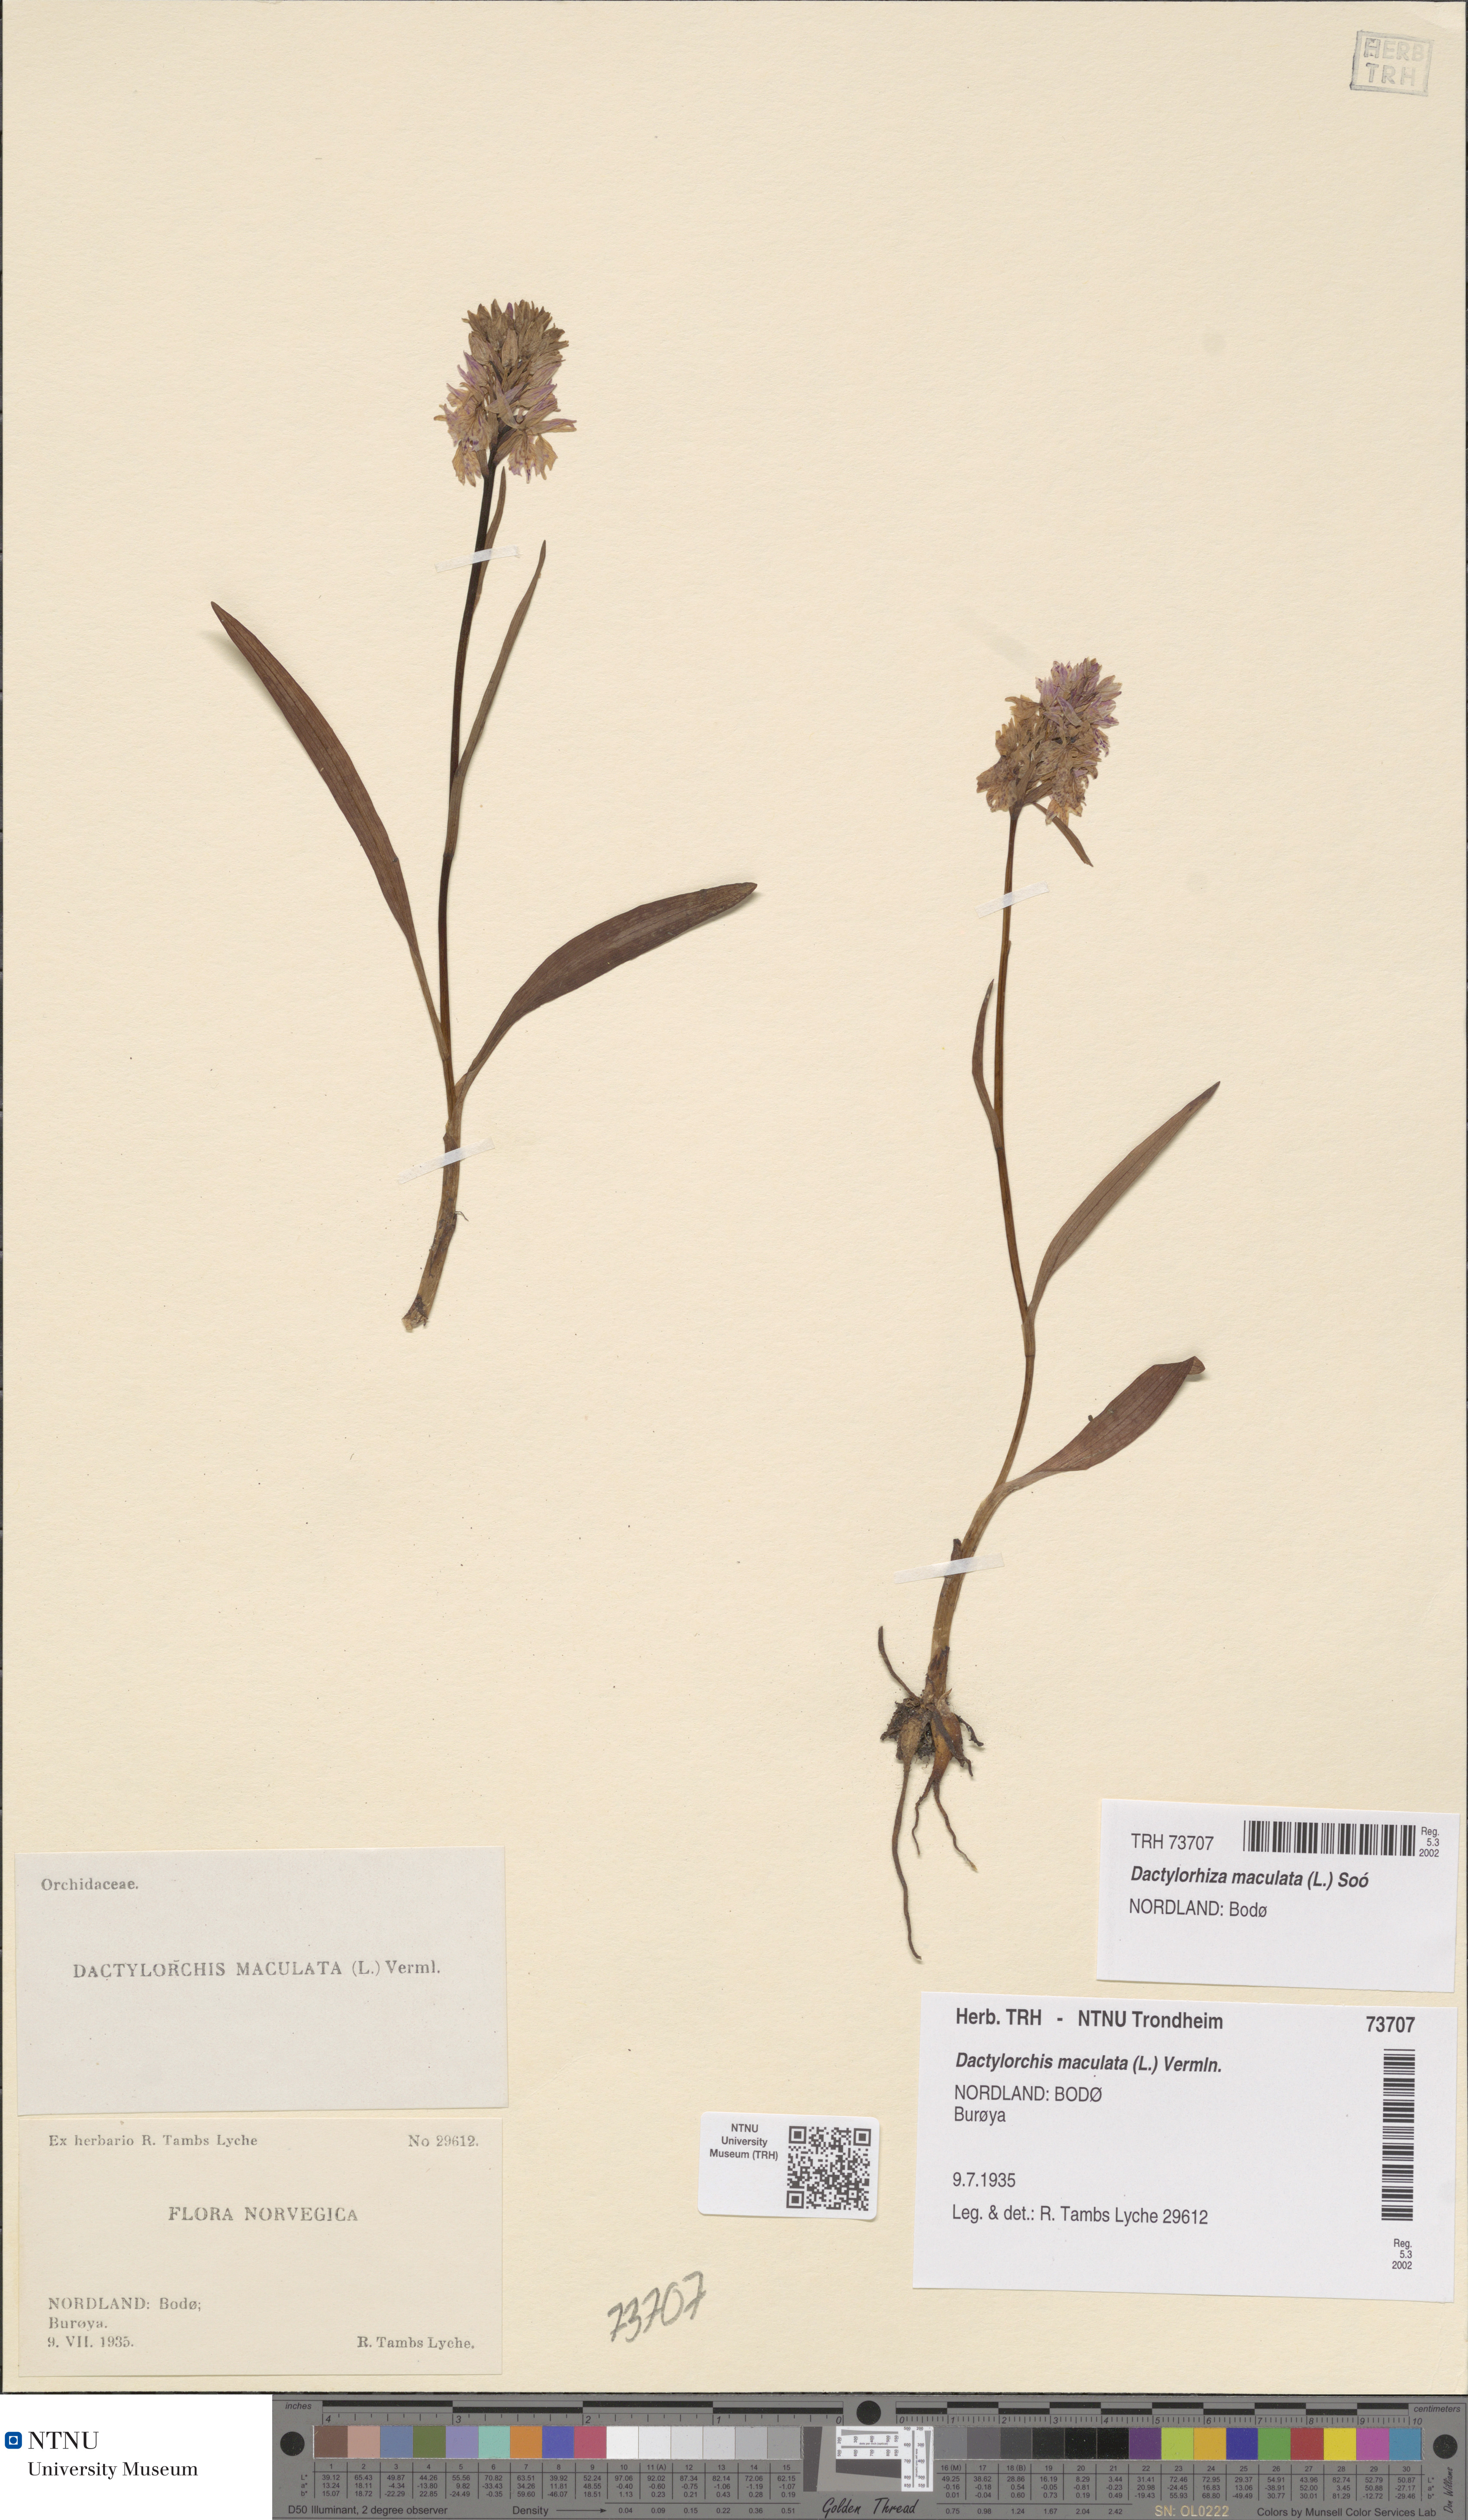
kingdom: Plantae
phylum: Tracheophyta
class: Liliopsida
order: Asparagales
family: Orchidaceae
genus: Dactylorhiza
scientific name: Dactylorhiza maculata
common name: Heath spotted-orchid
